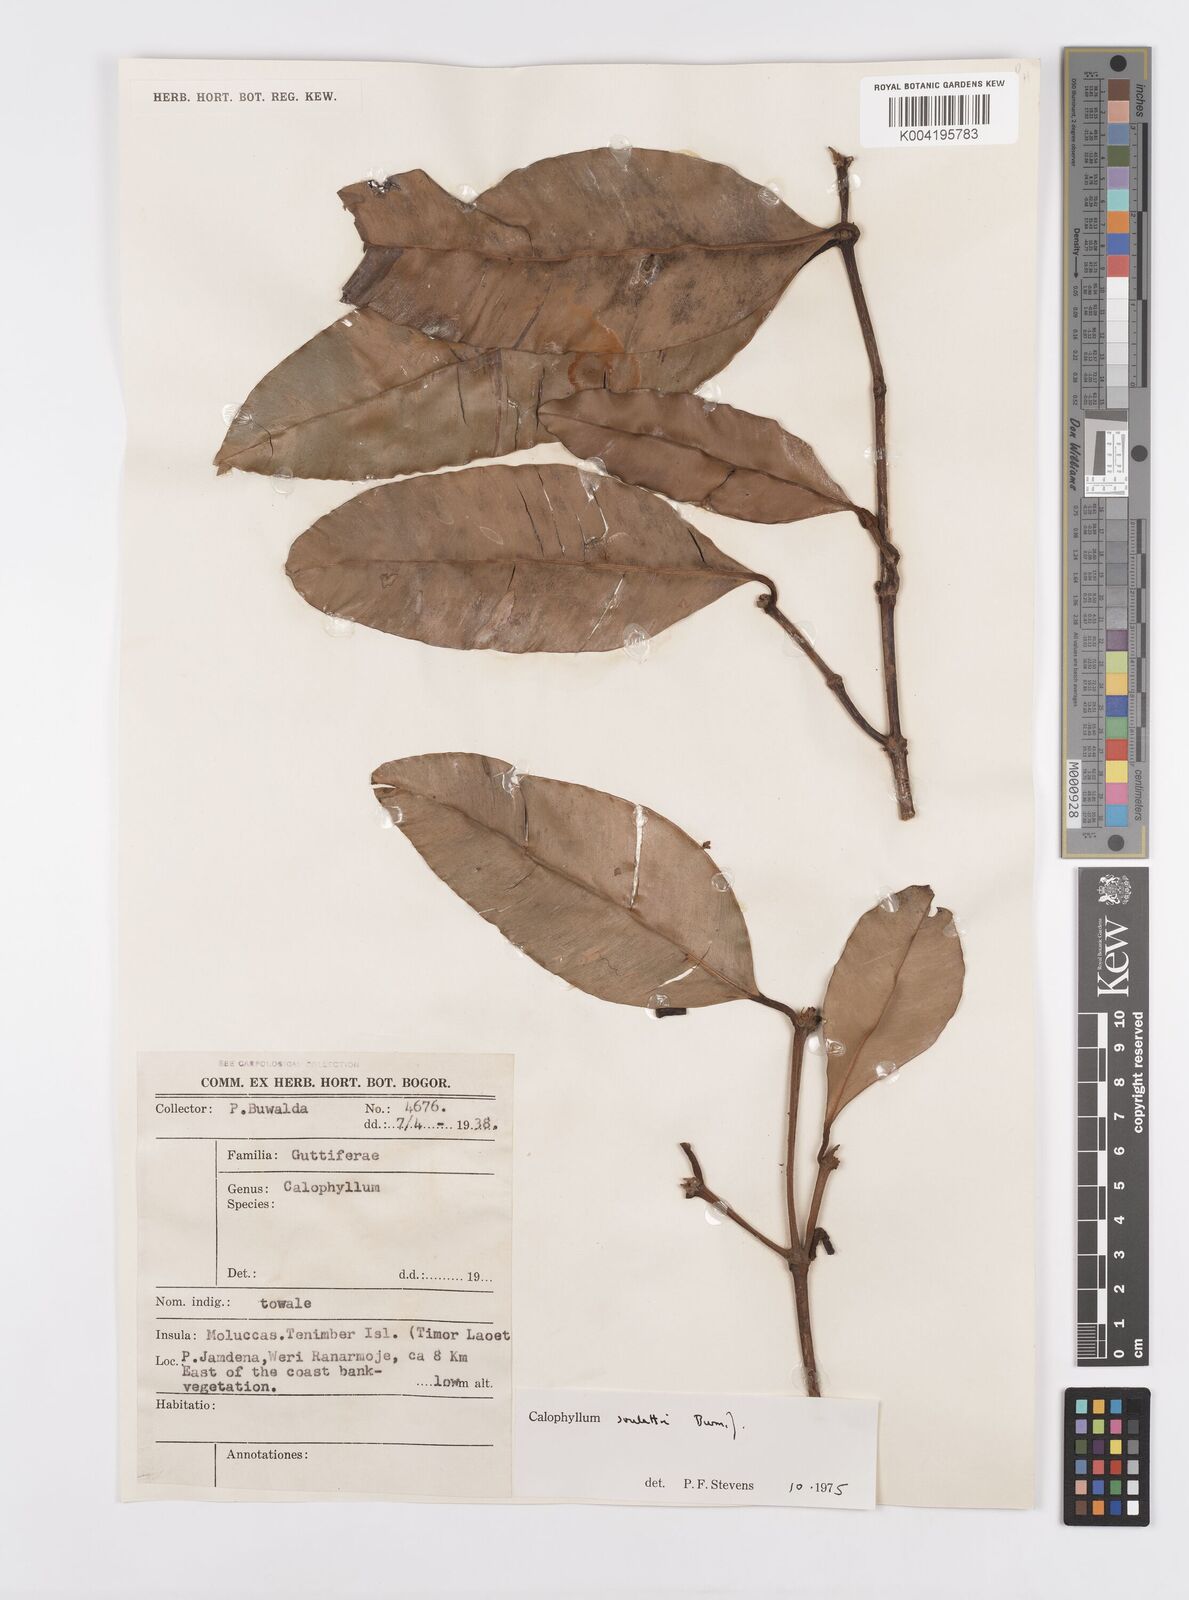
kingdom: Plantae
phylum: Tracheophyta
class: Magnoliopsida
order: Malpighiales
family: Calophyllaceae
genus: Calophyllum
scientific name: Calophyllum soulattri
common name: Bitangoor boonot
